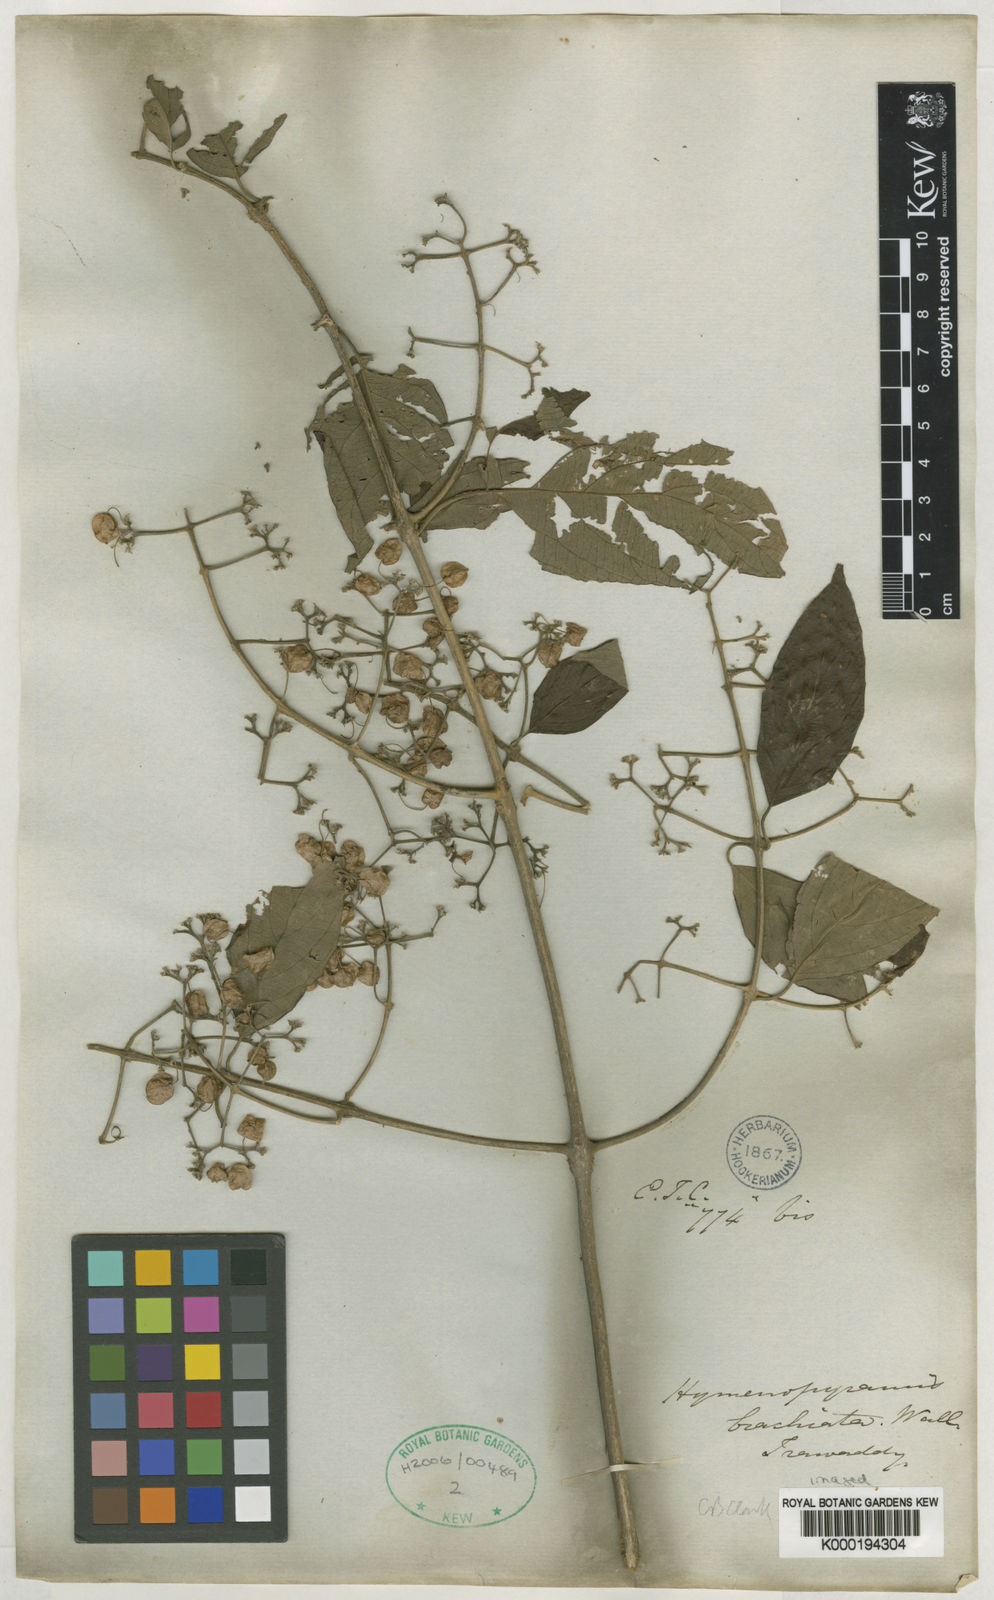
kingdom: Plantae
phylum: Tracheophyta
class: Magnoliopsida
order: Lamiales
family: Lamiaceae
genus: Hymenopyramis
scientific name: Hymenopyramis
